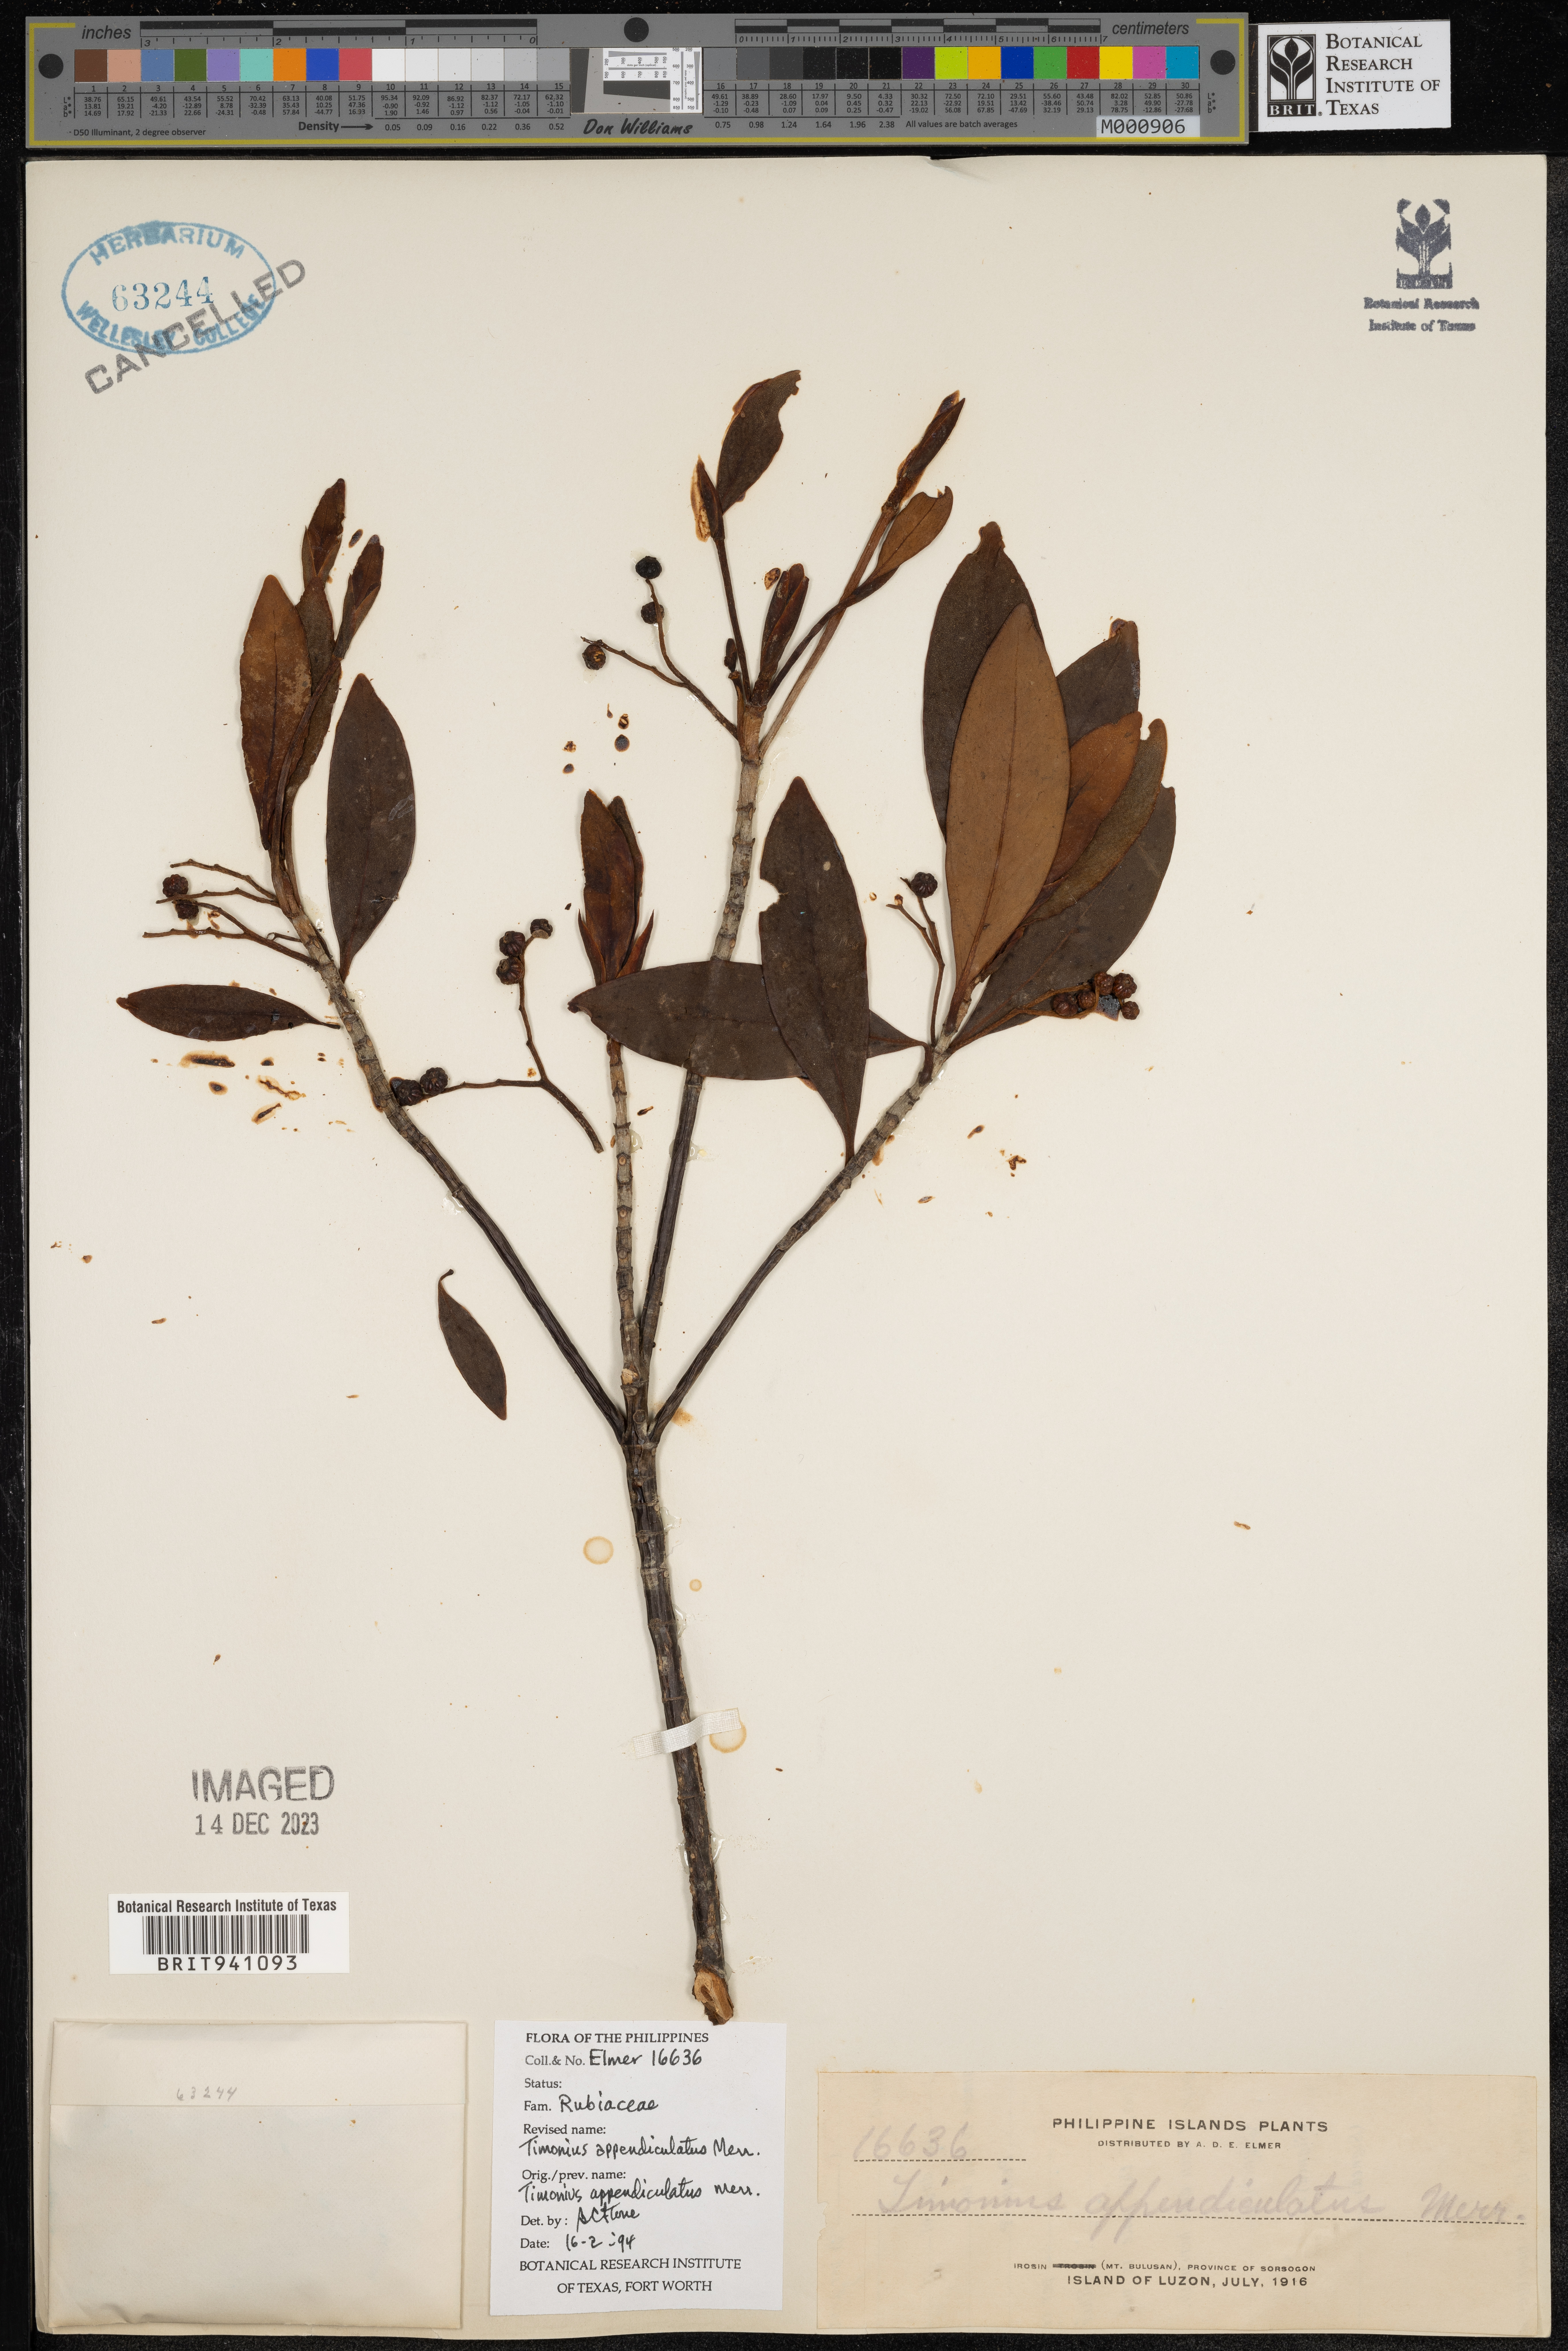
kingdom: Plantae
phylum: Tracheophyta
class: Magnoliopsida
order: Gentianales
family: Rubiaceae
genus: Timonius
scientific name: Timonius
